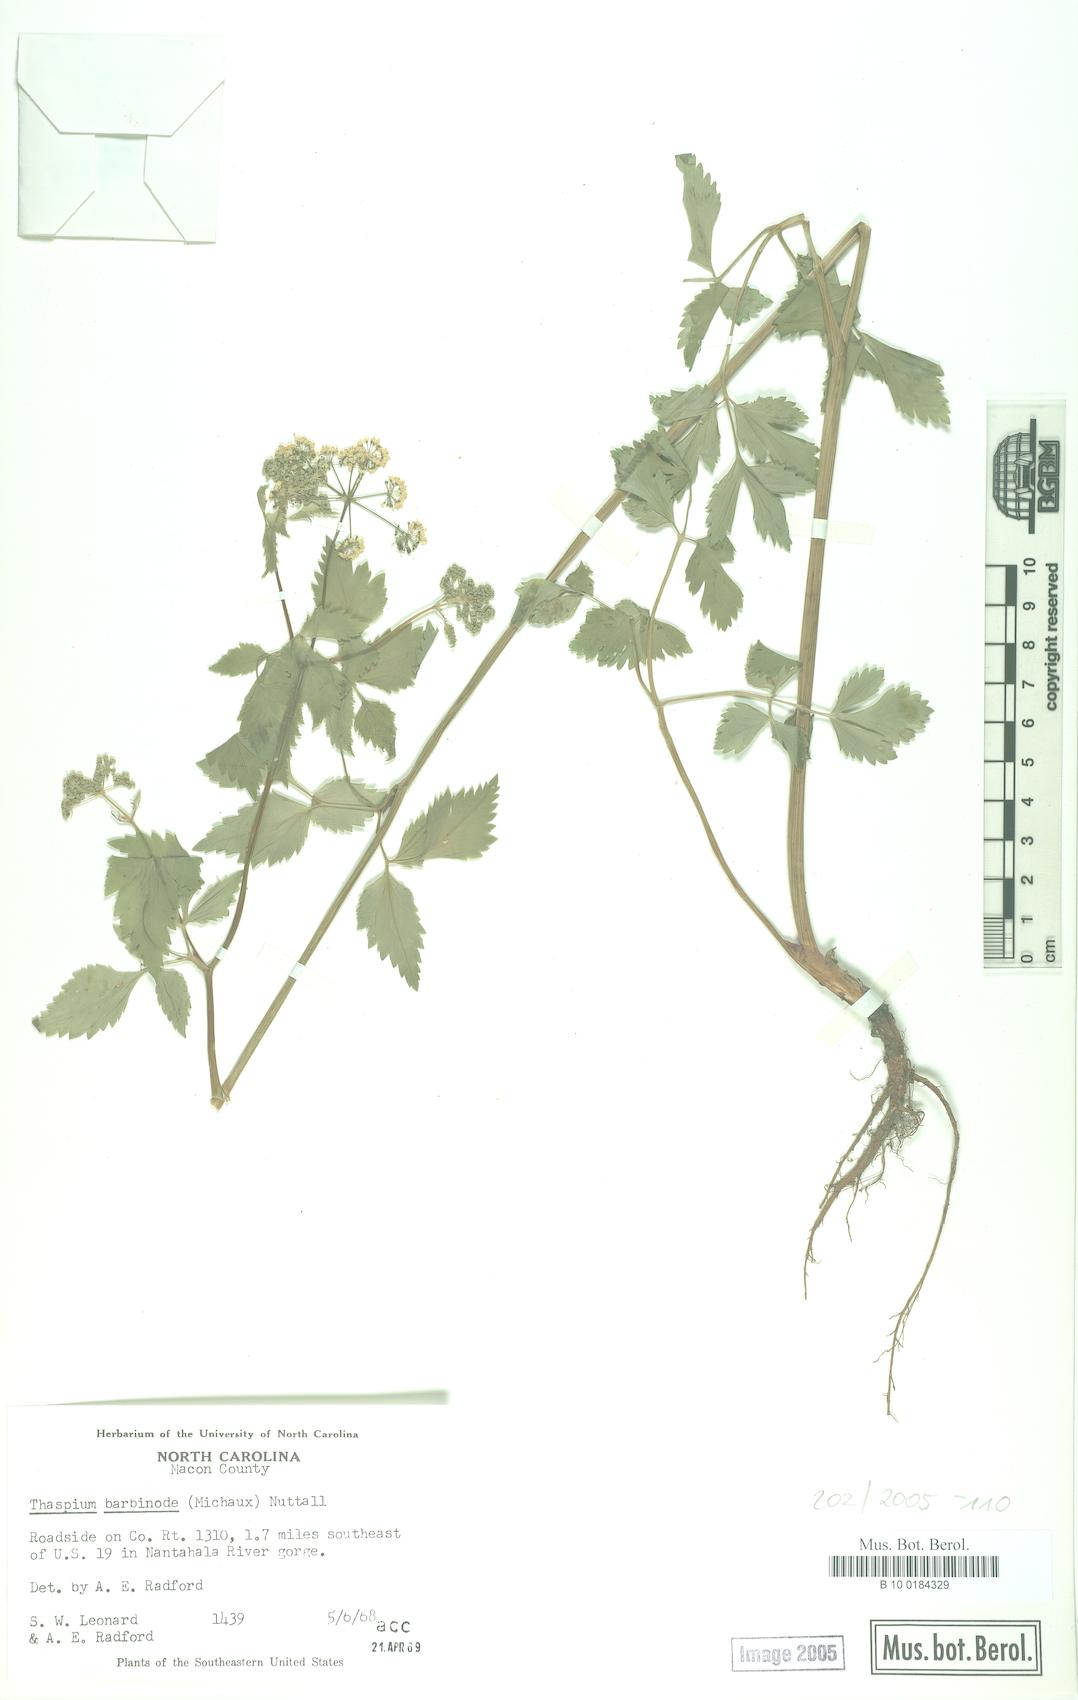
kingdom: Plantae
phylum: Tracheophyta
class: Magnoliopsida
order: Apiales
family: Apiaceae
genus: Thaspium
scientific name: Thaspium barbinode
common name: Bearded meadow-parsnip
